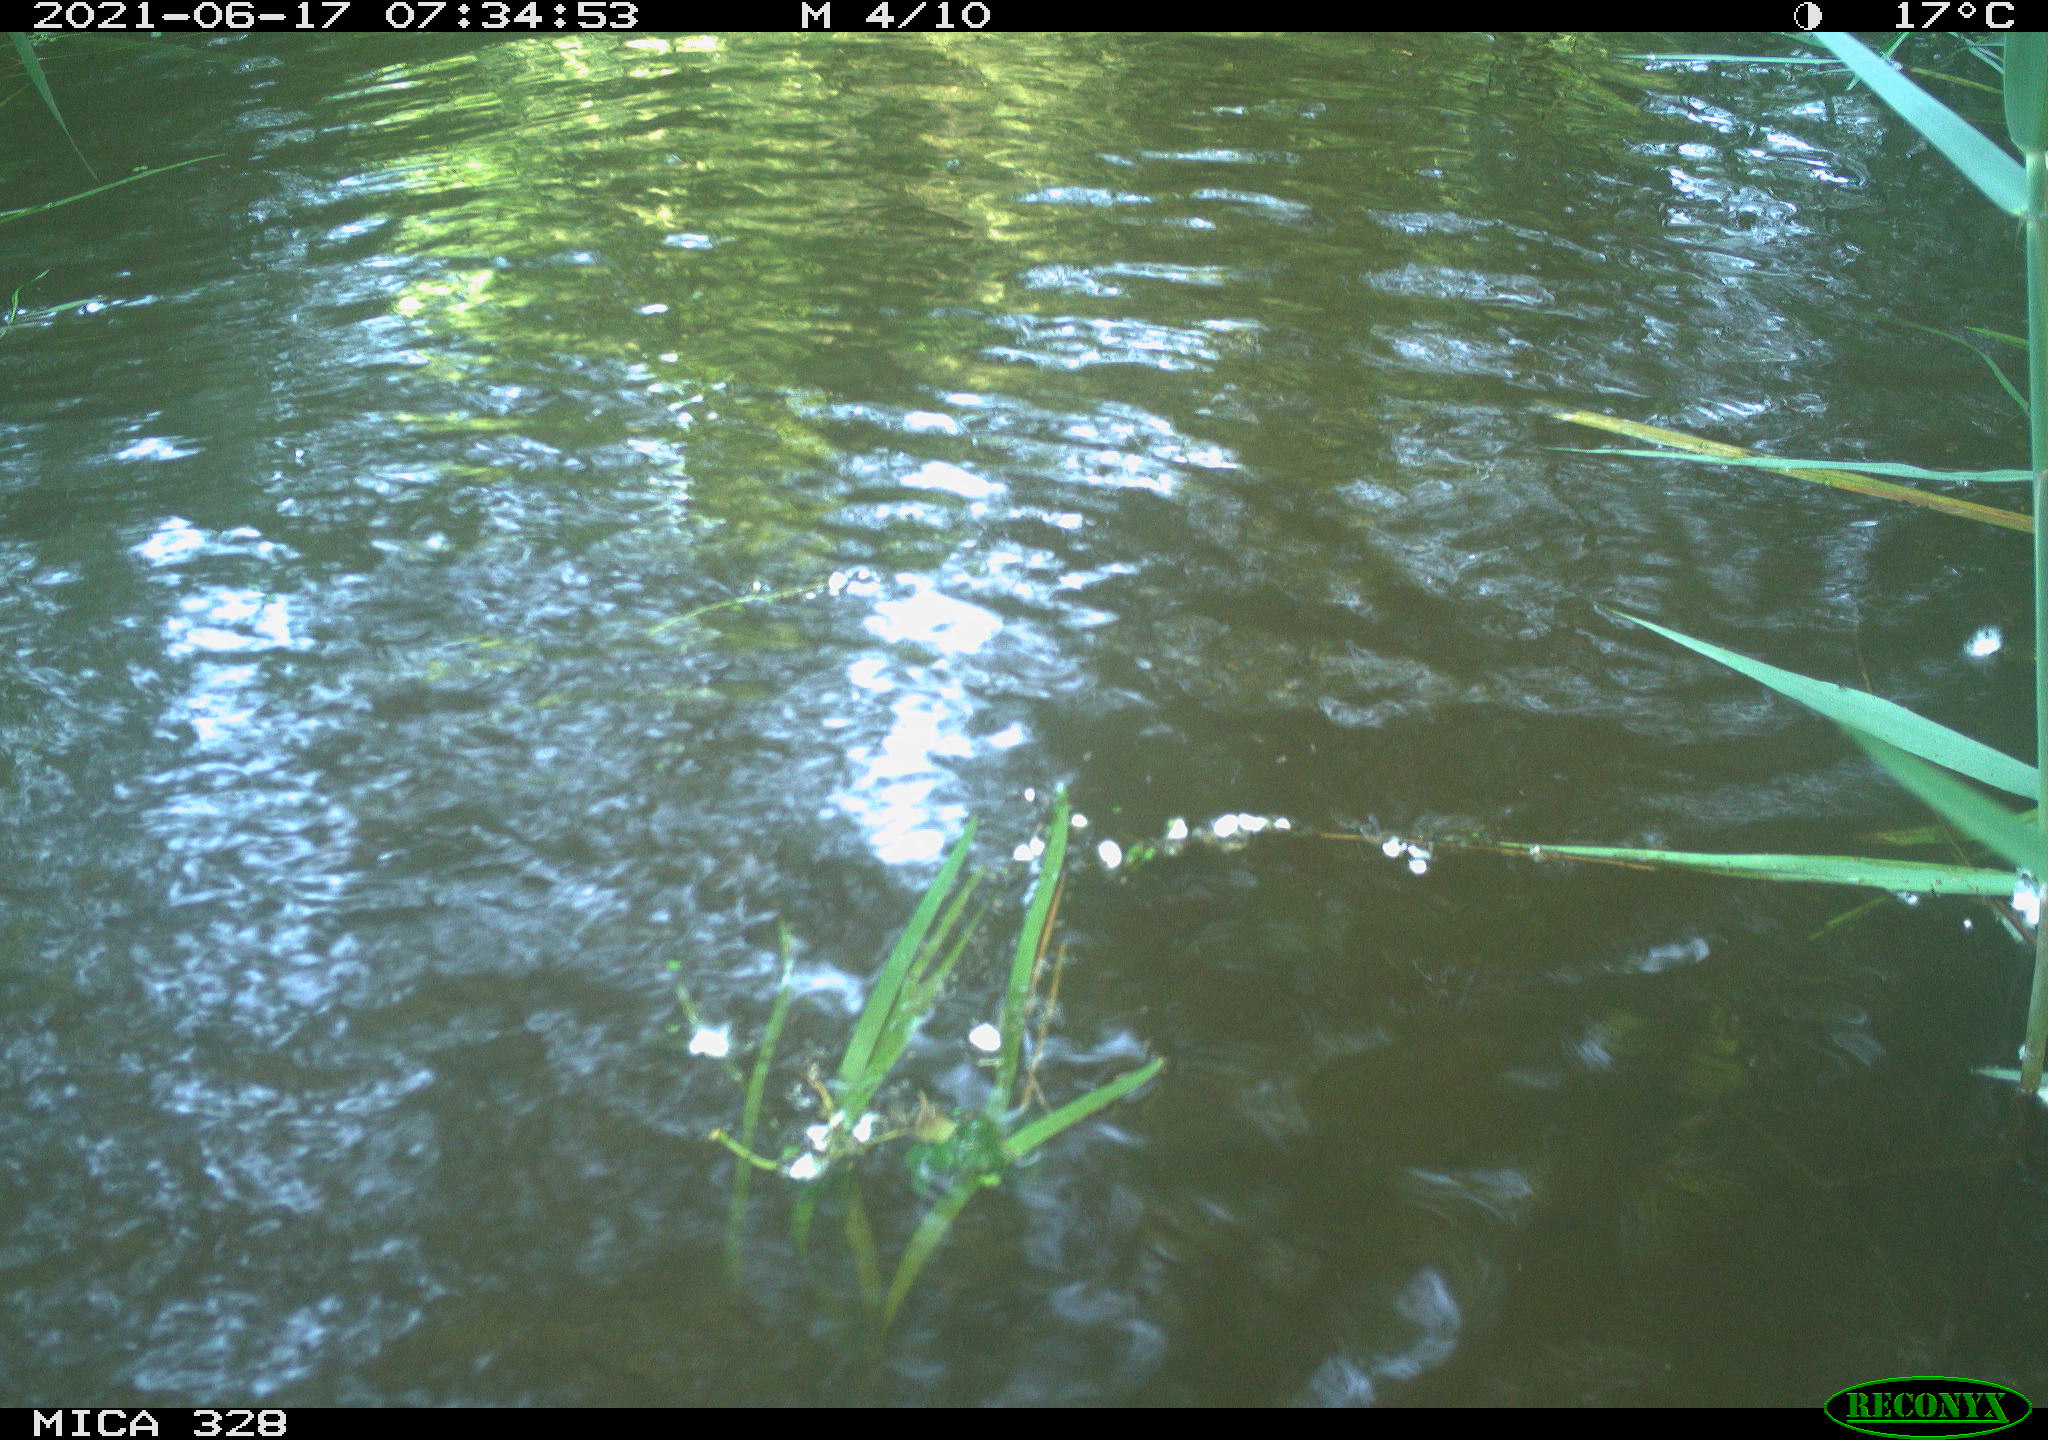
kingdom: Animalia
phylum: Chordata
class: Mammalia
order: Rodentia
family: Cricetidae
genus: Ondatra
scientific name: Ondatra zibethicus
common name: Muskrat
